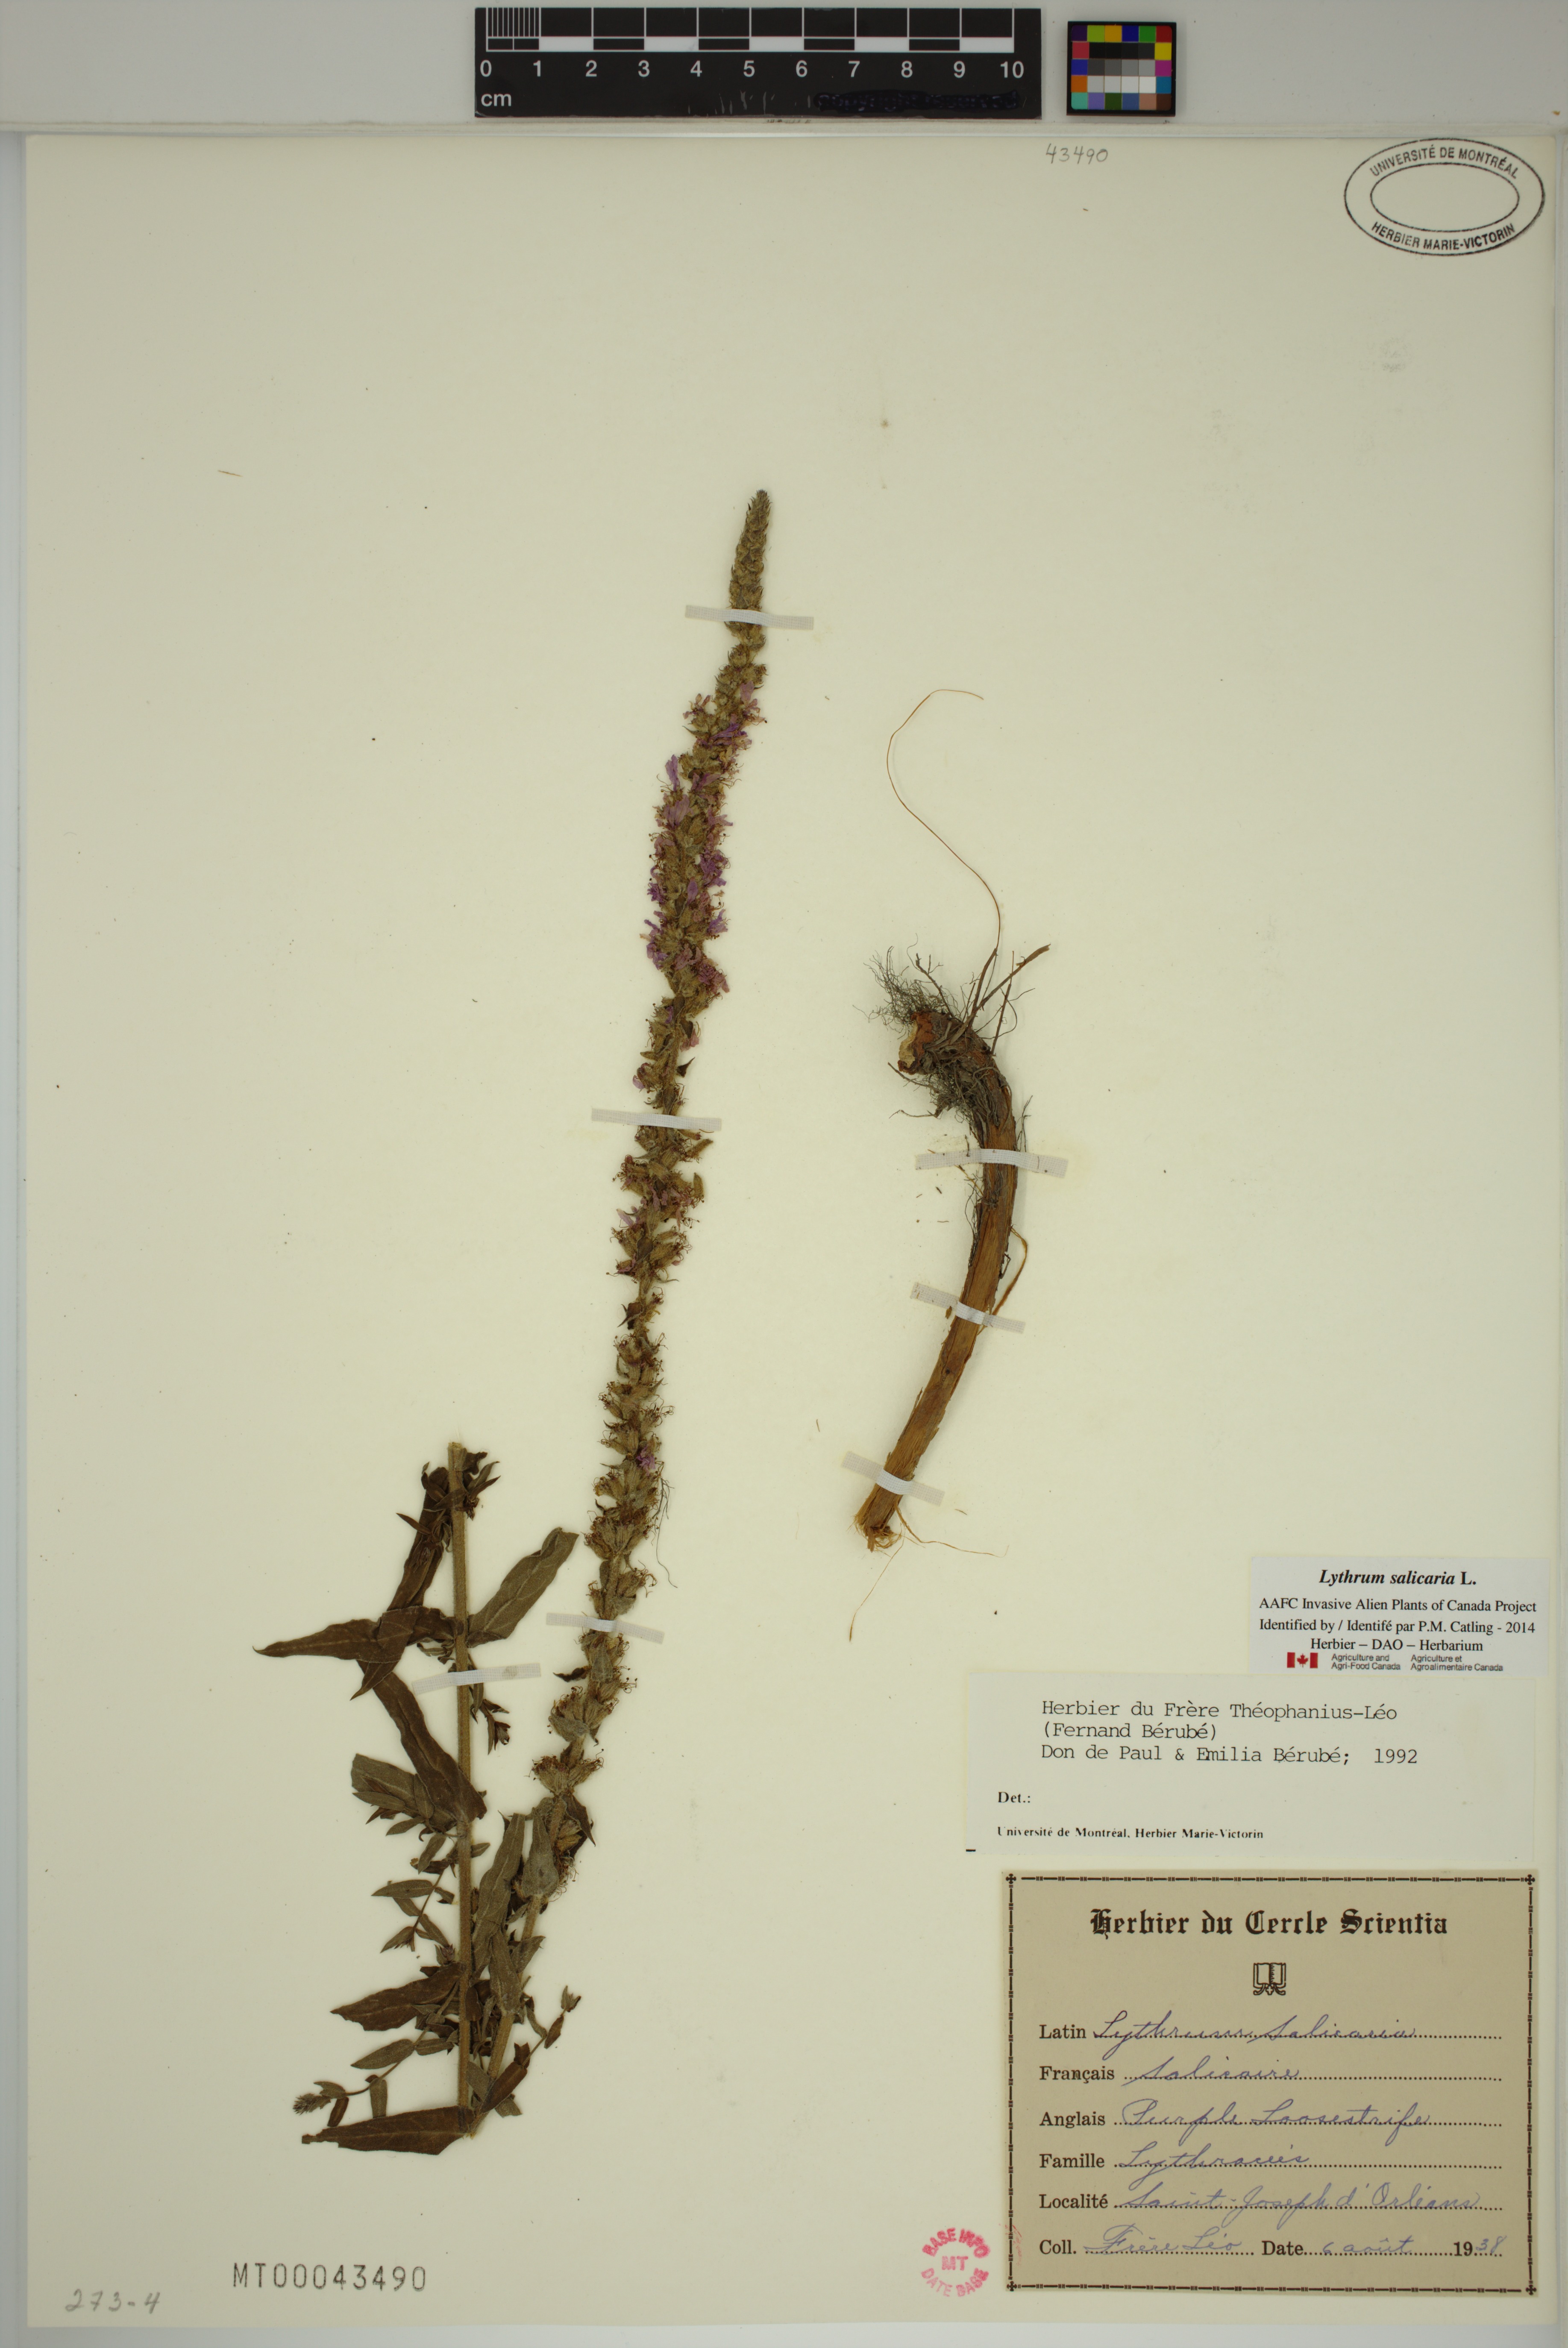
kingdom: Plantae
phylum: Tracheophyta
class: Magnoliopsida
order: Myrtales
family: Lythraceae
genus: Lythrum
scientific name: Lythrum salicaria
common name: Purple loosestrife
